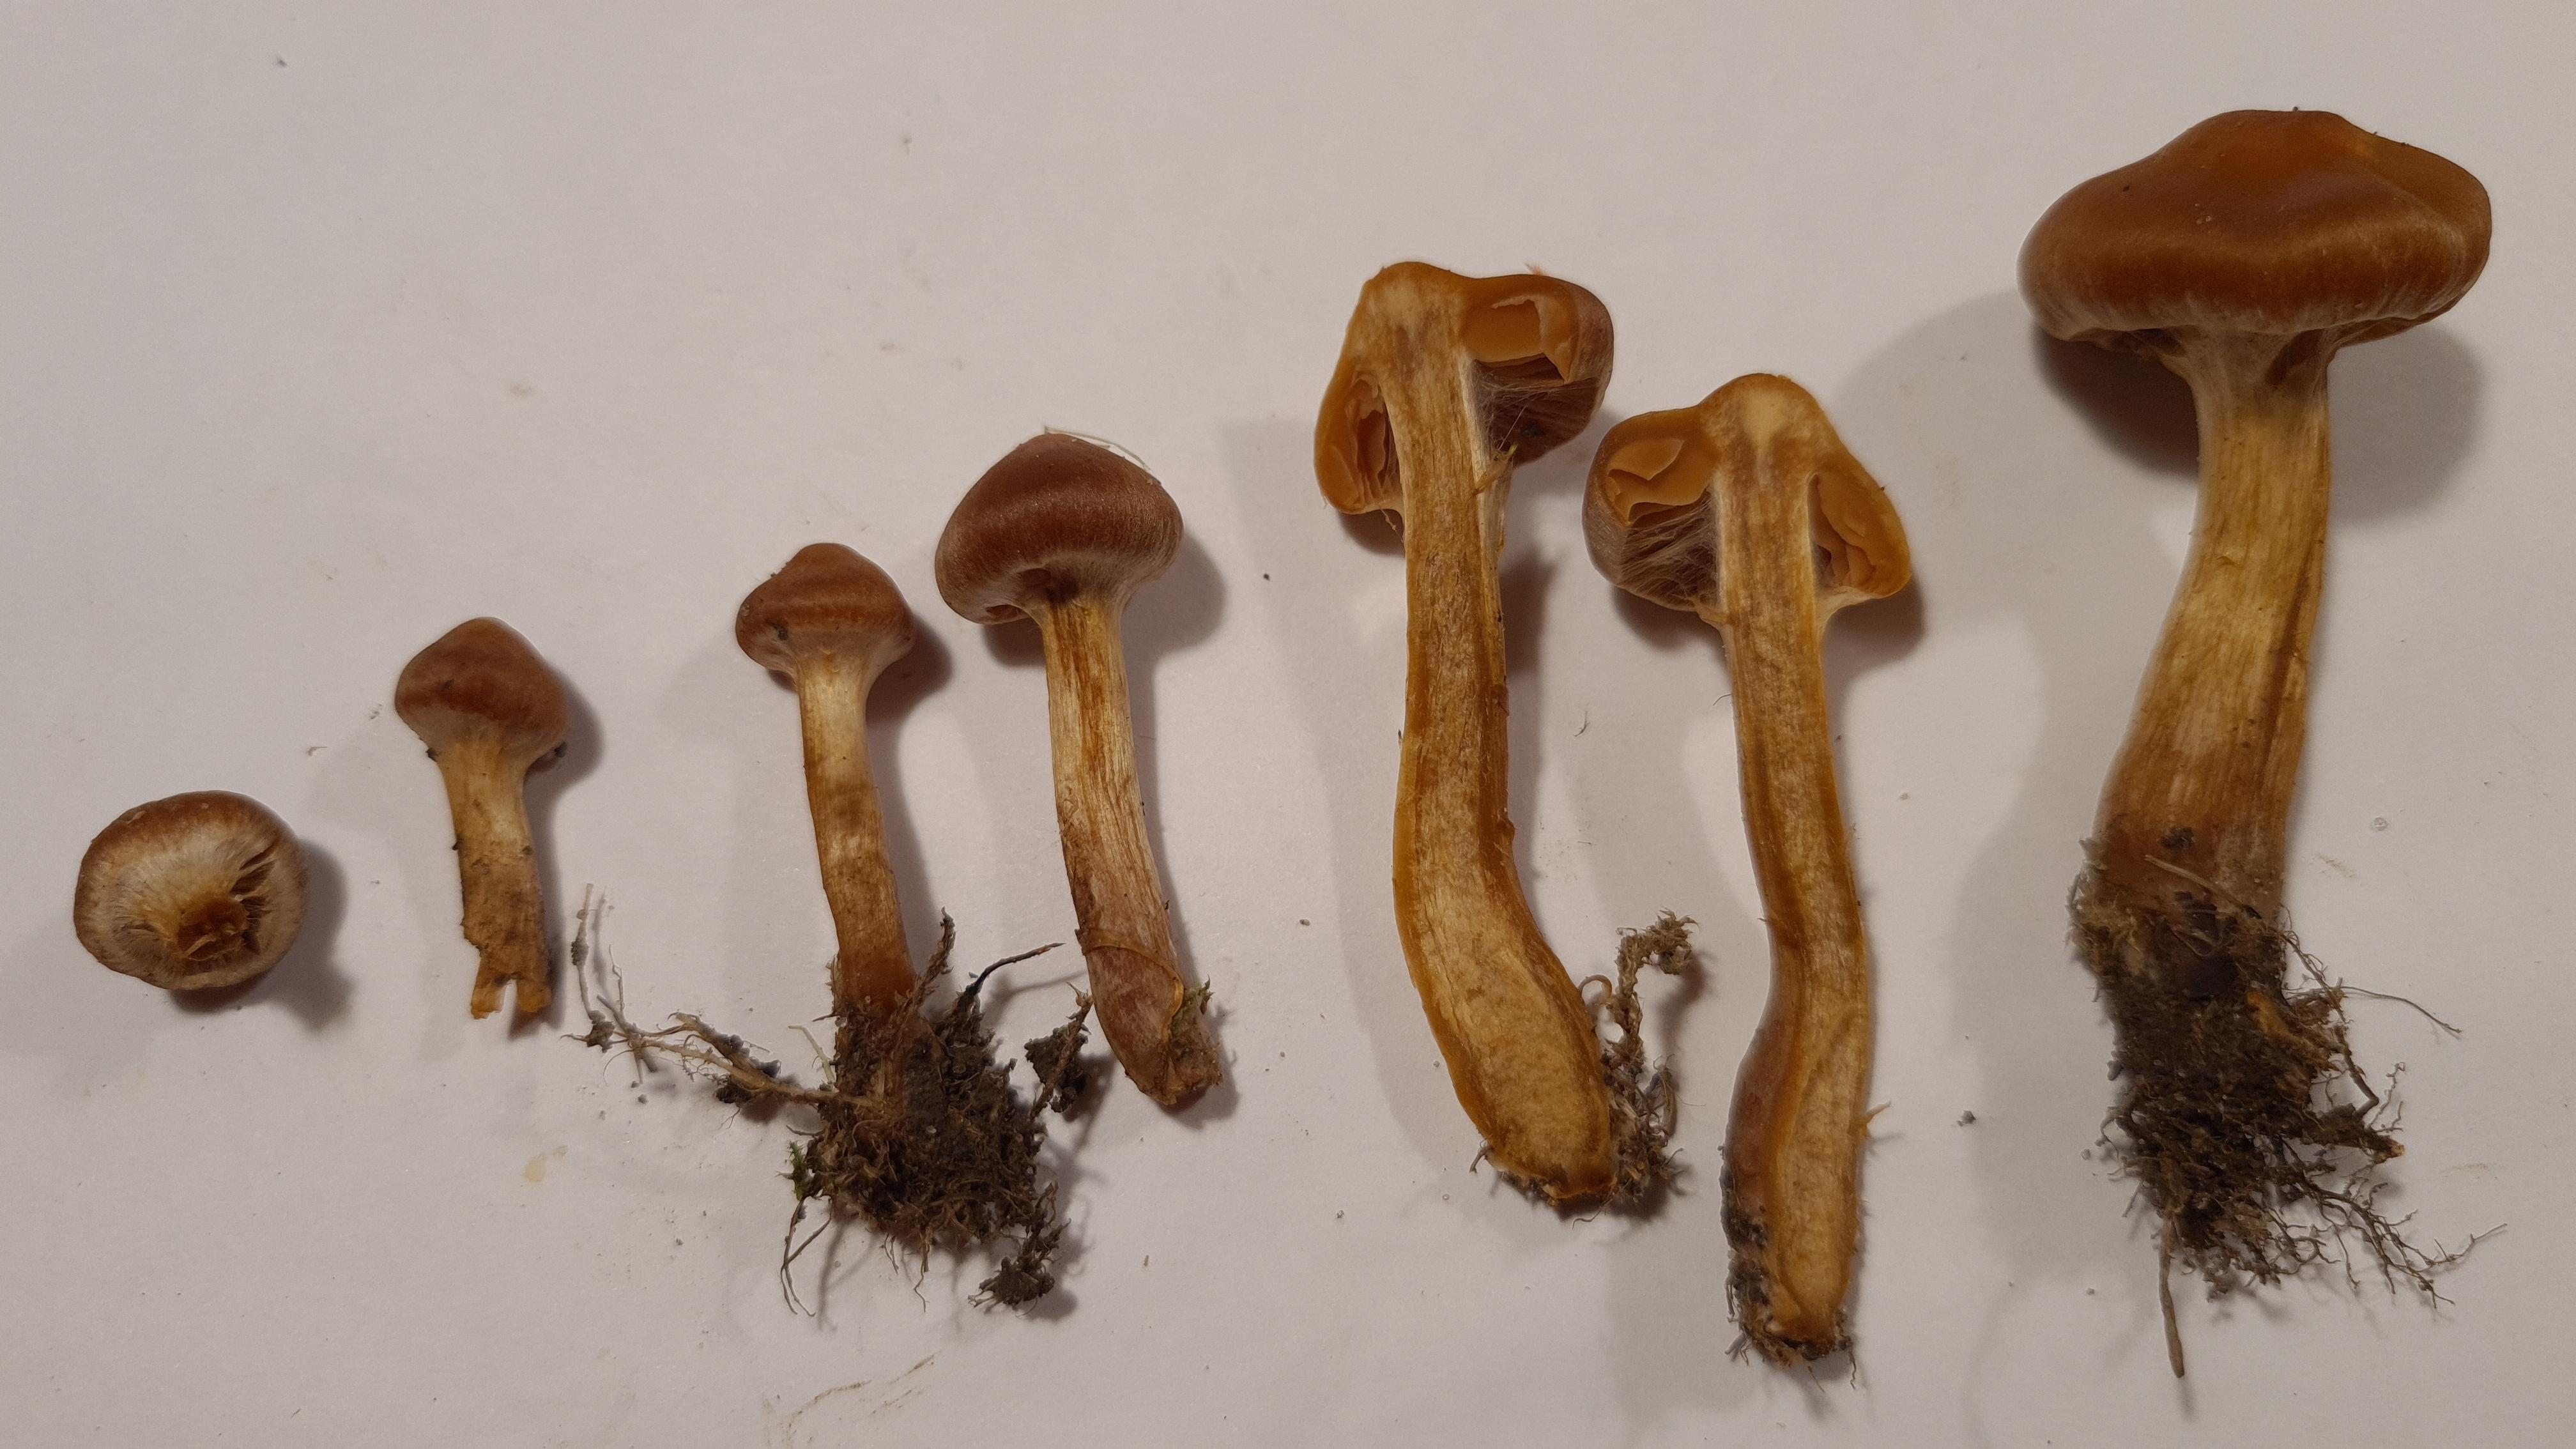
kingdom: Fungi
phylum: Basidiomycota
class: Agaricomycetes
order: Agaricales
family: Cortinariaceae
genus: Cortinarius
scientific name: Cortinarius hinnuleus
